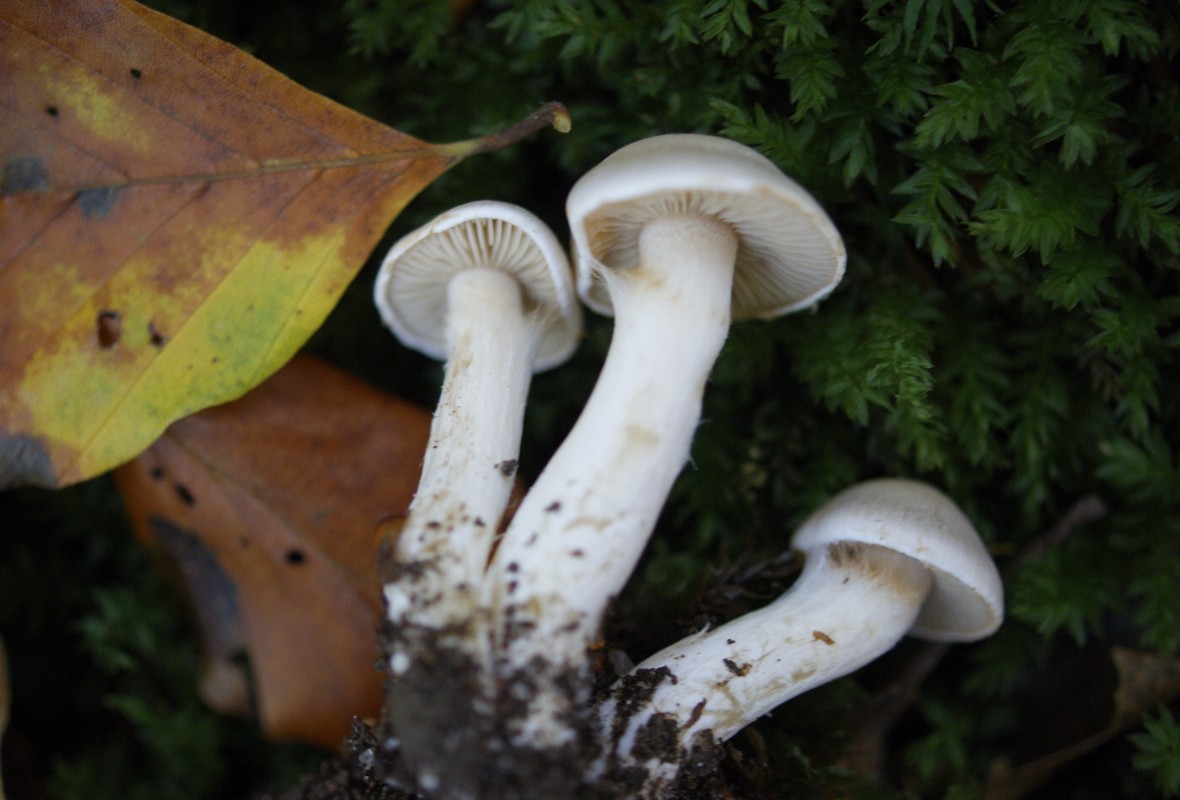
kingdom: Fungi
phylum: Basidiomycota
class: Agaricomycetes
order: Agaricales
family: Cortinariaceae
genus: Thaxterogaster
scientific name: Thaxterogaster barbatus
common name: elfenbens-slørhat
